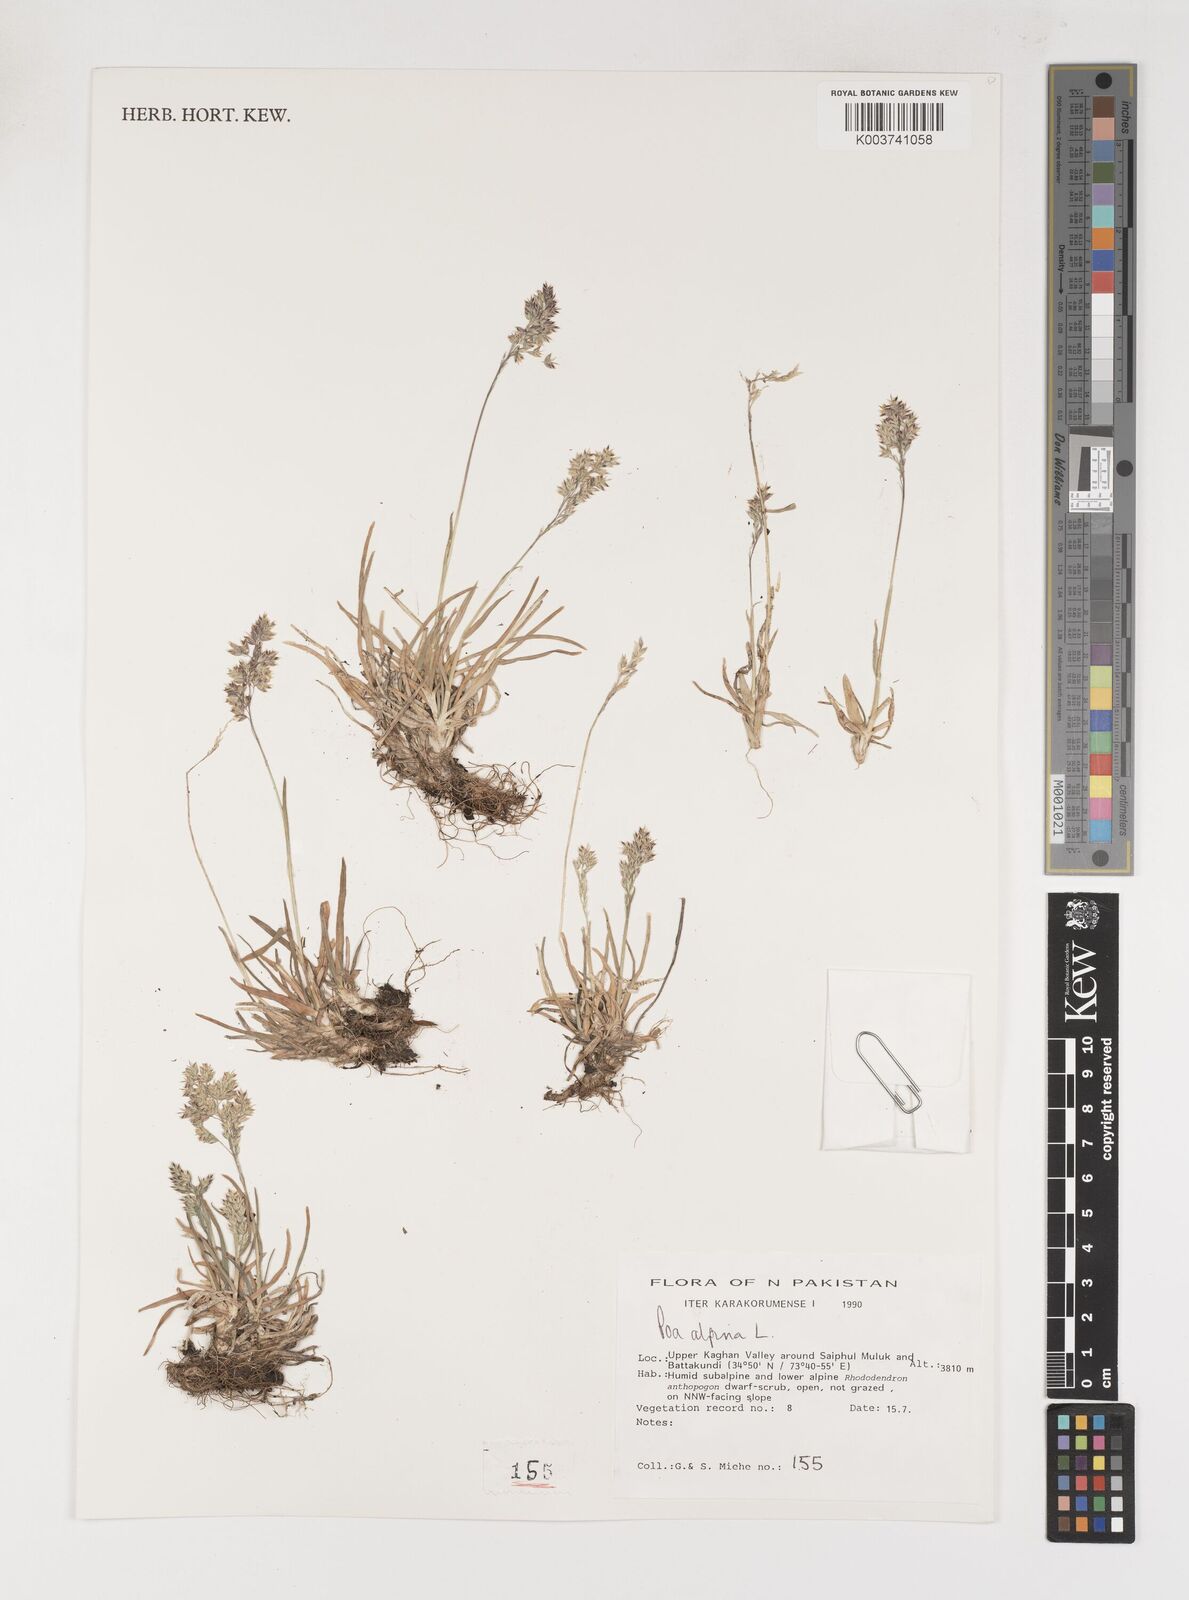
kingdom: Plantae
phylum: Tracheophyta
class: Liliopsida
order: Poales
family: Poaceae
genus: Poa
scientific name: Poa alpina
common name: Alpine bluegrass
